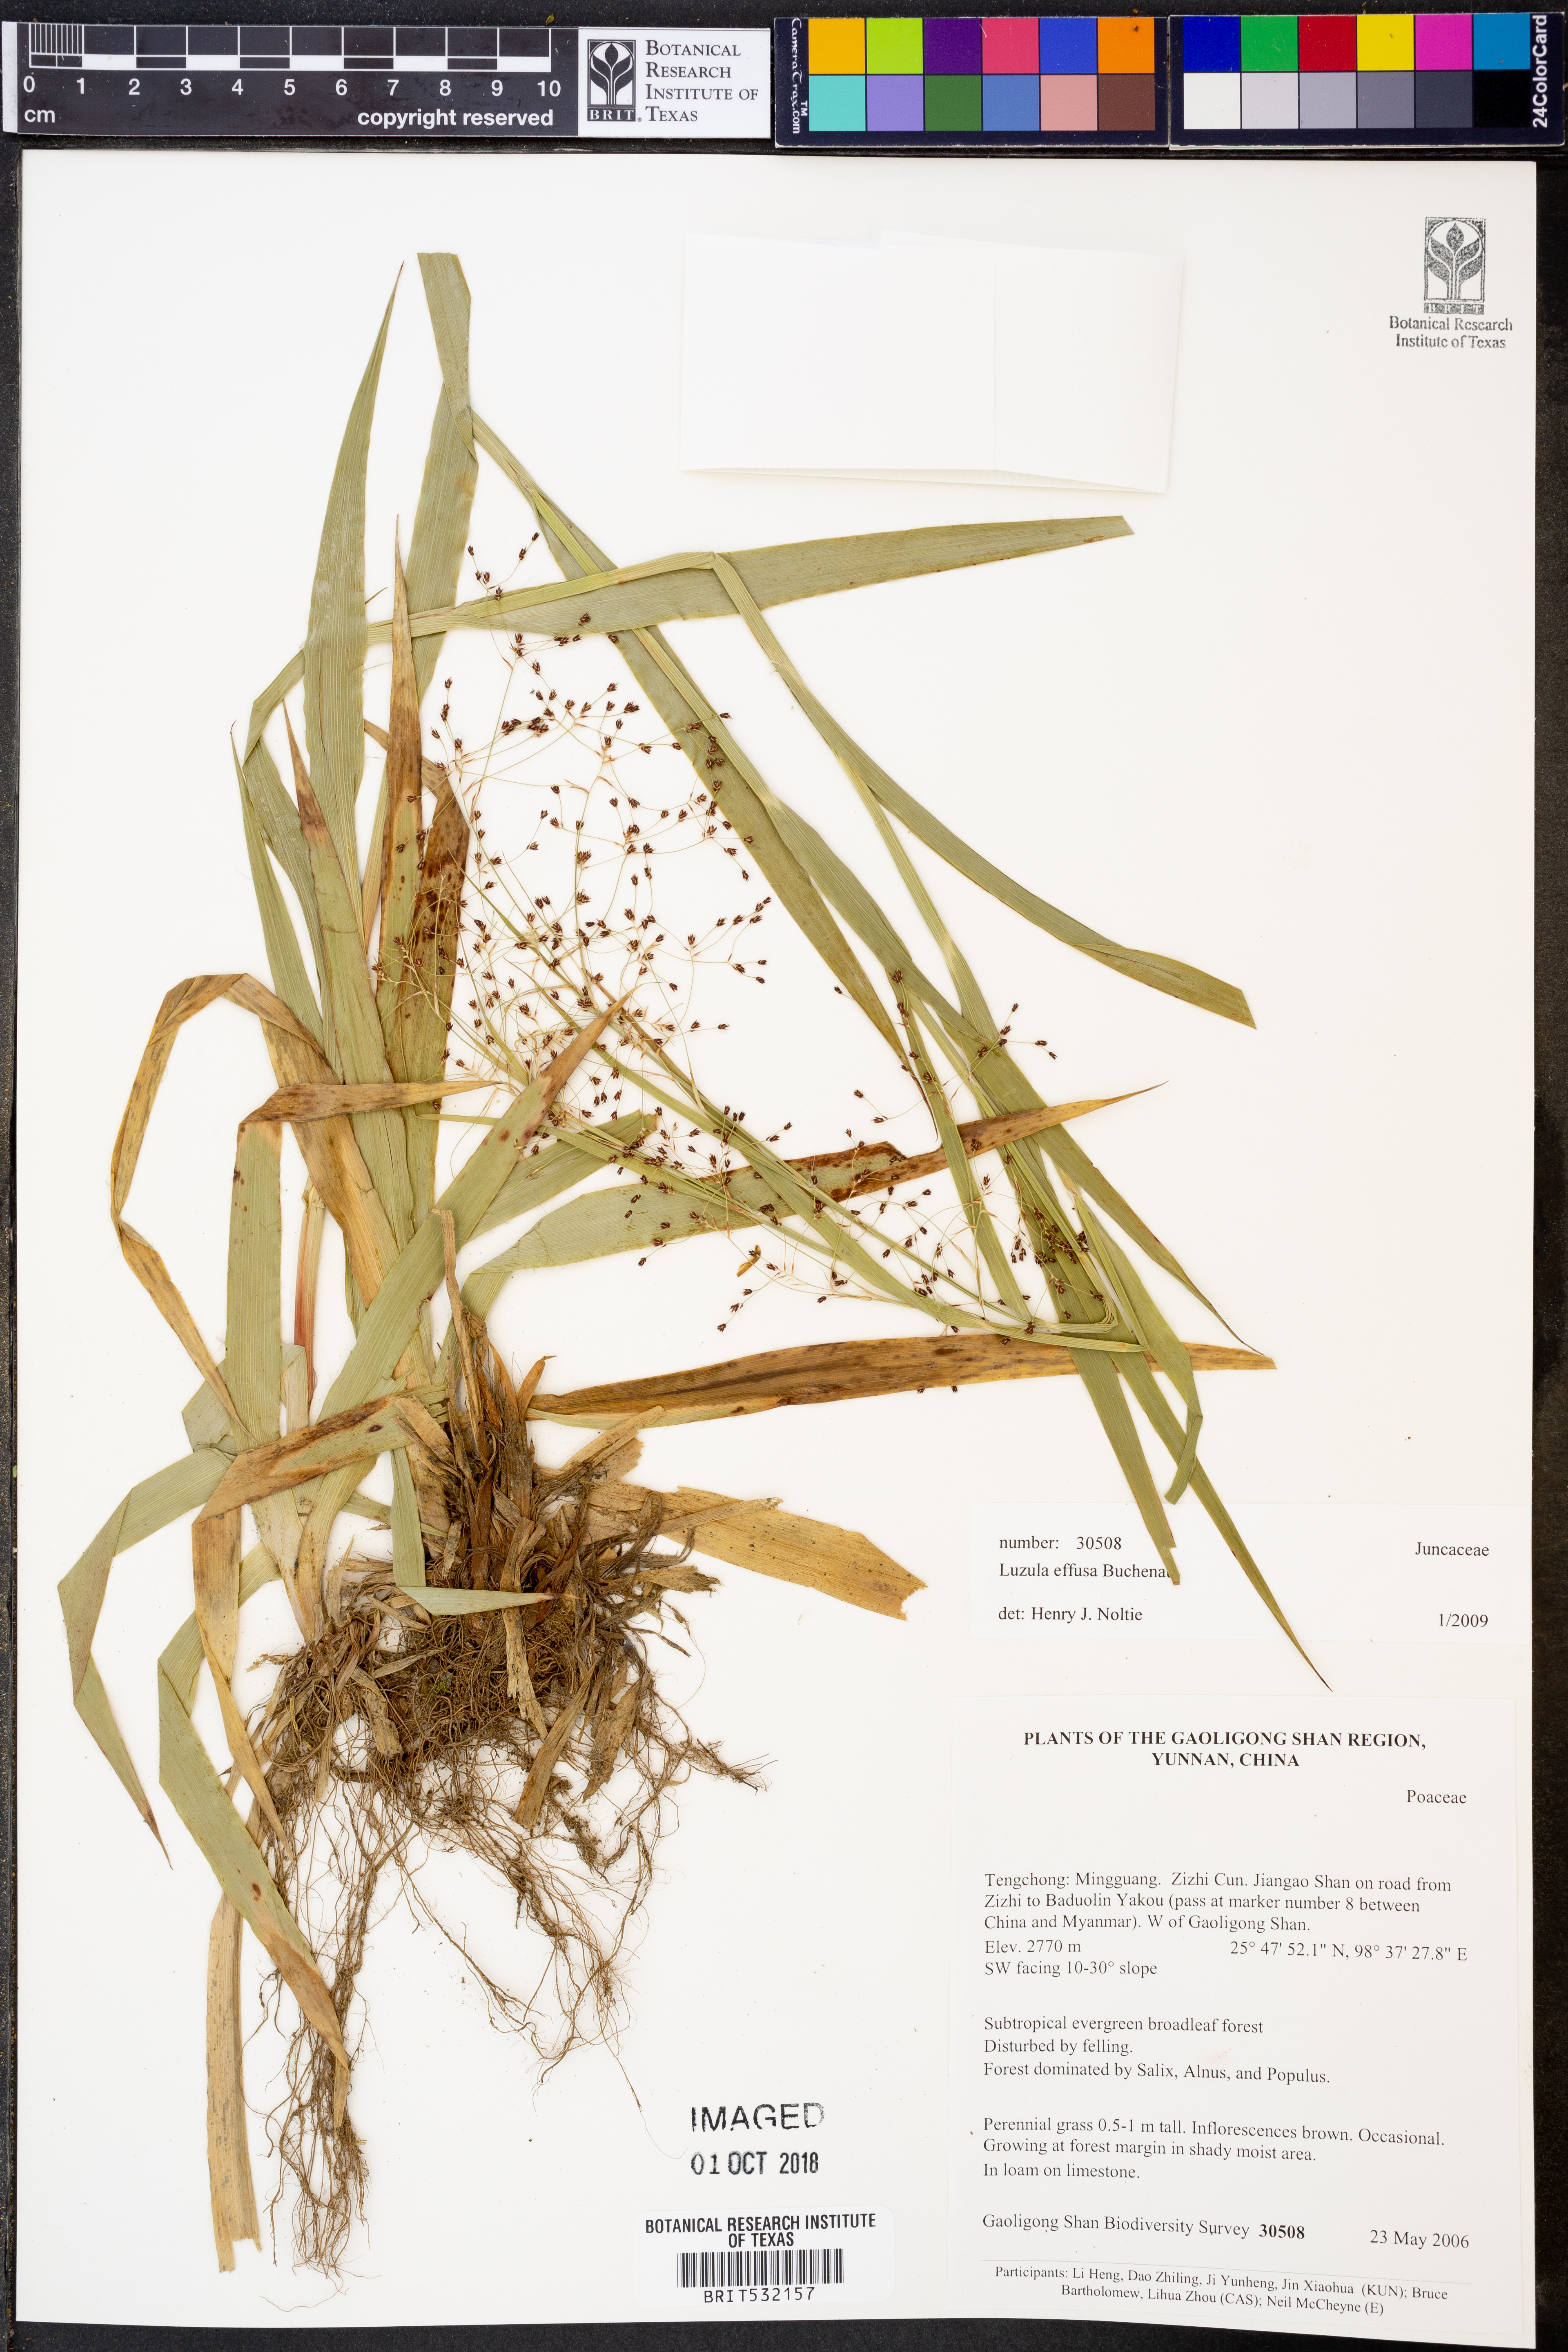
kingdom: Plantae
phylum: Tracheophyta
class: Liliopsida
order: Poales
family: Juncaceae
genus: Luzula
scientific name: Luzula effusa
